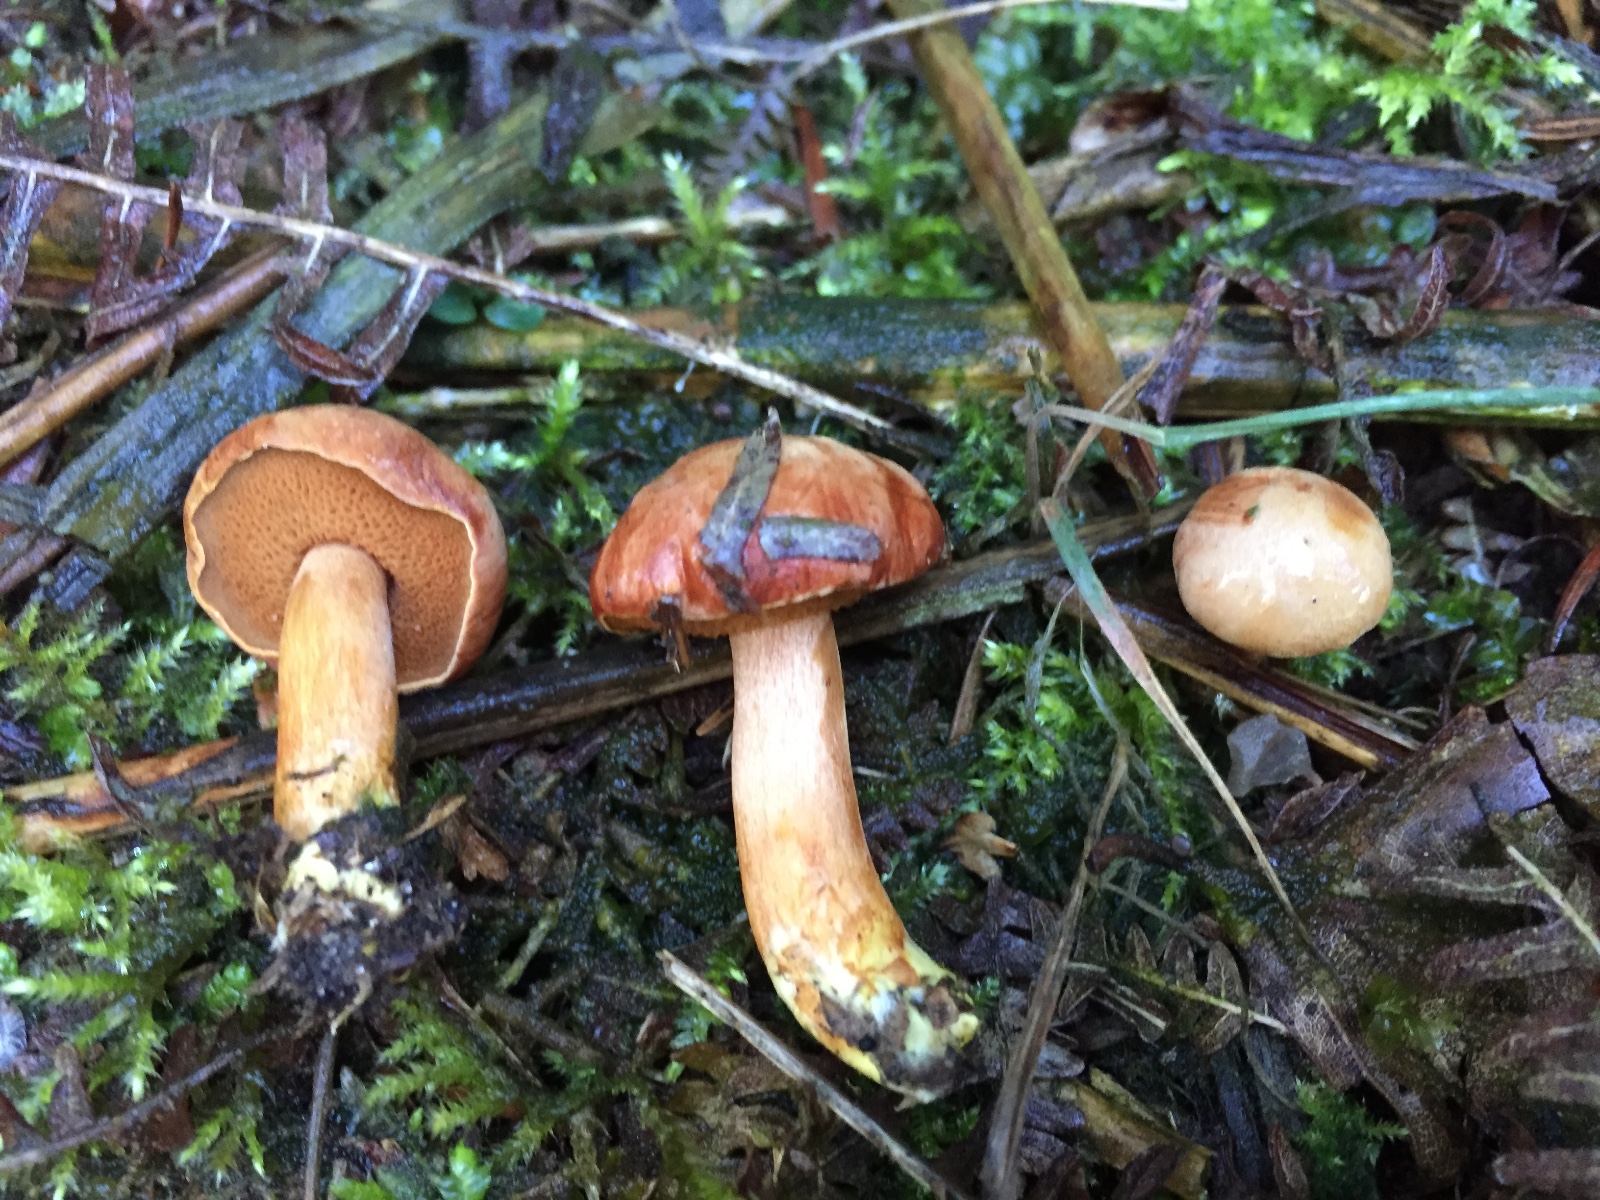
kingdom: Fungi
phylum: Basidiomycota
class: Agaricomycetes
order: Boletales
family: Boletaceae
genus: Chalciporus
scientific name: Chalciporus piperatus
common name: peberrørhat
